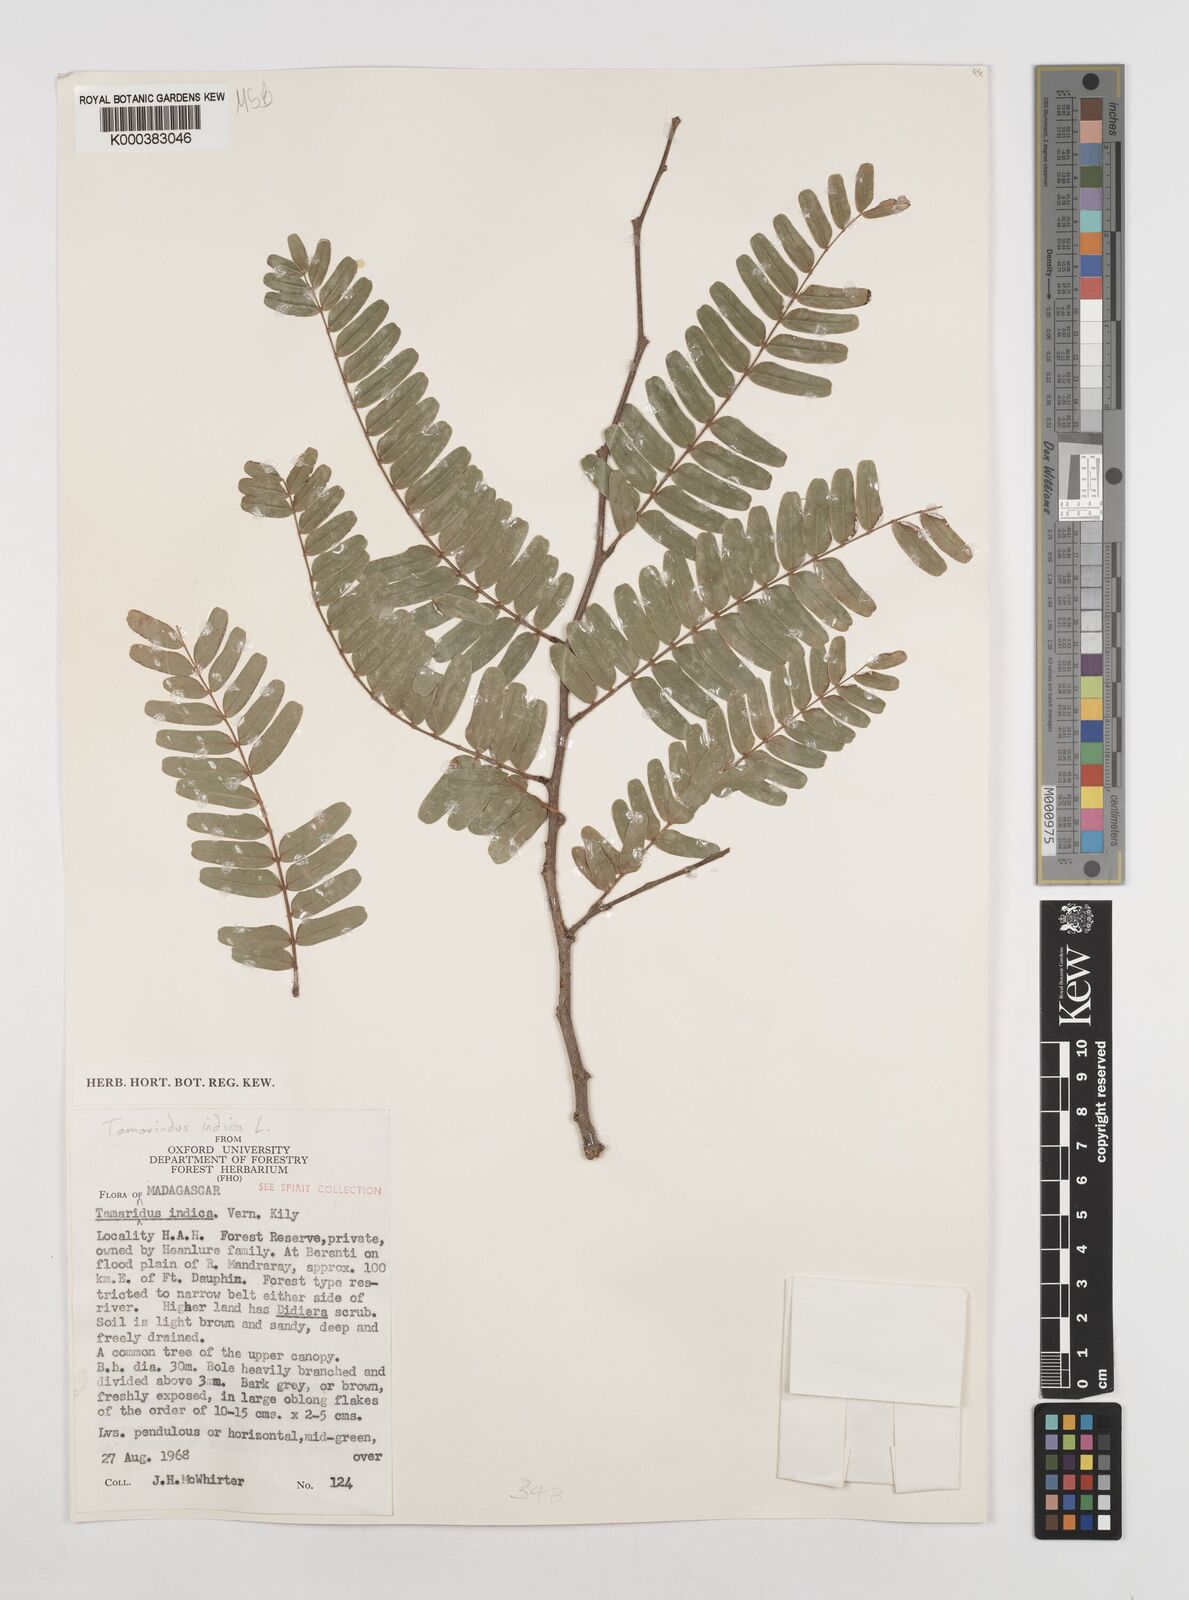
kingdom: Plantae
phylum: Tracheophyta
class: Magnoliopsida
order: Fabales
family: Fabaceae
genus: Tamarindus
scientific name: Tamarindus indica
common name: Tamarind
